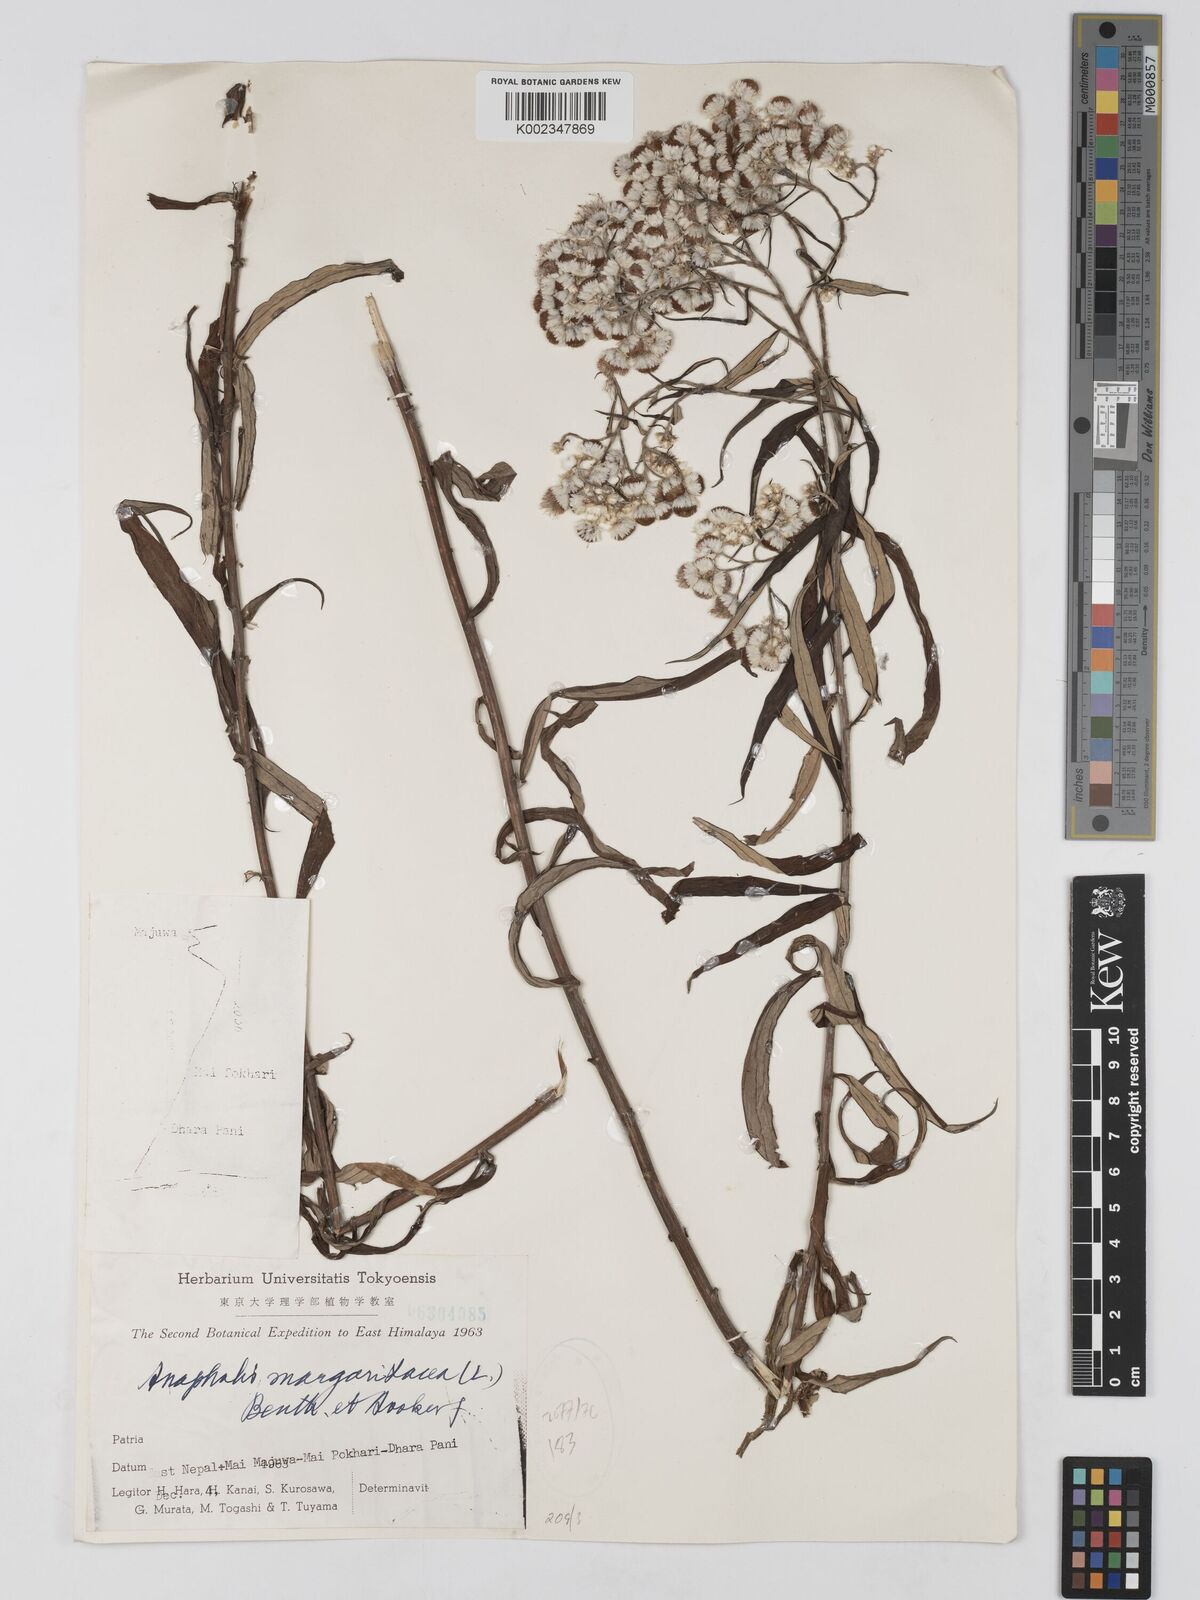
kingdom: Plantae
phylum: Tracheophyta
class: Magnoliopsida
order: Asterales
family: Asteraceae
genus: Anaphalis
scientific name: Anaphalis margaritacea
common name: Pearly everlasting
